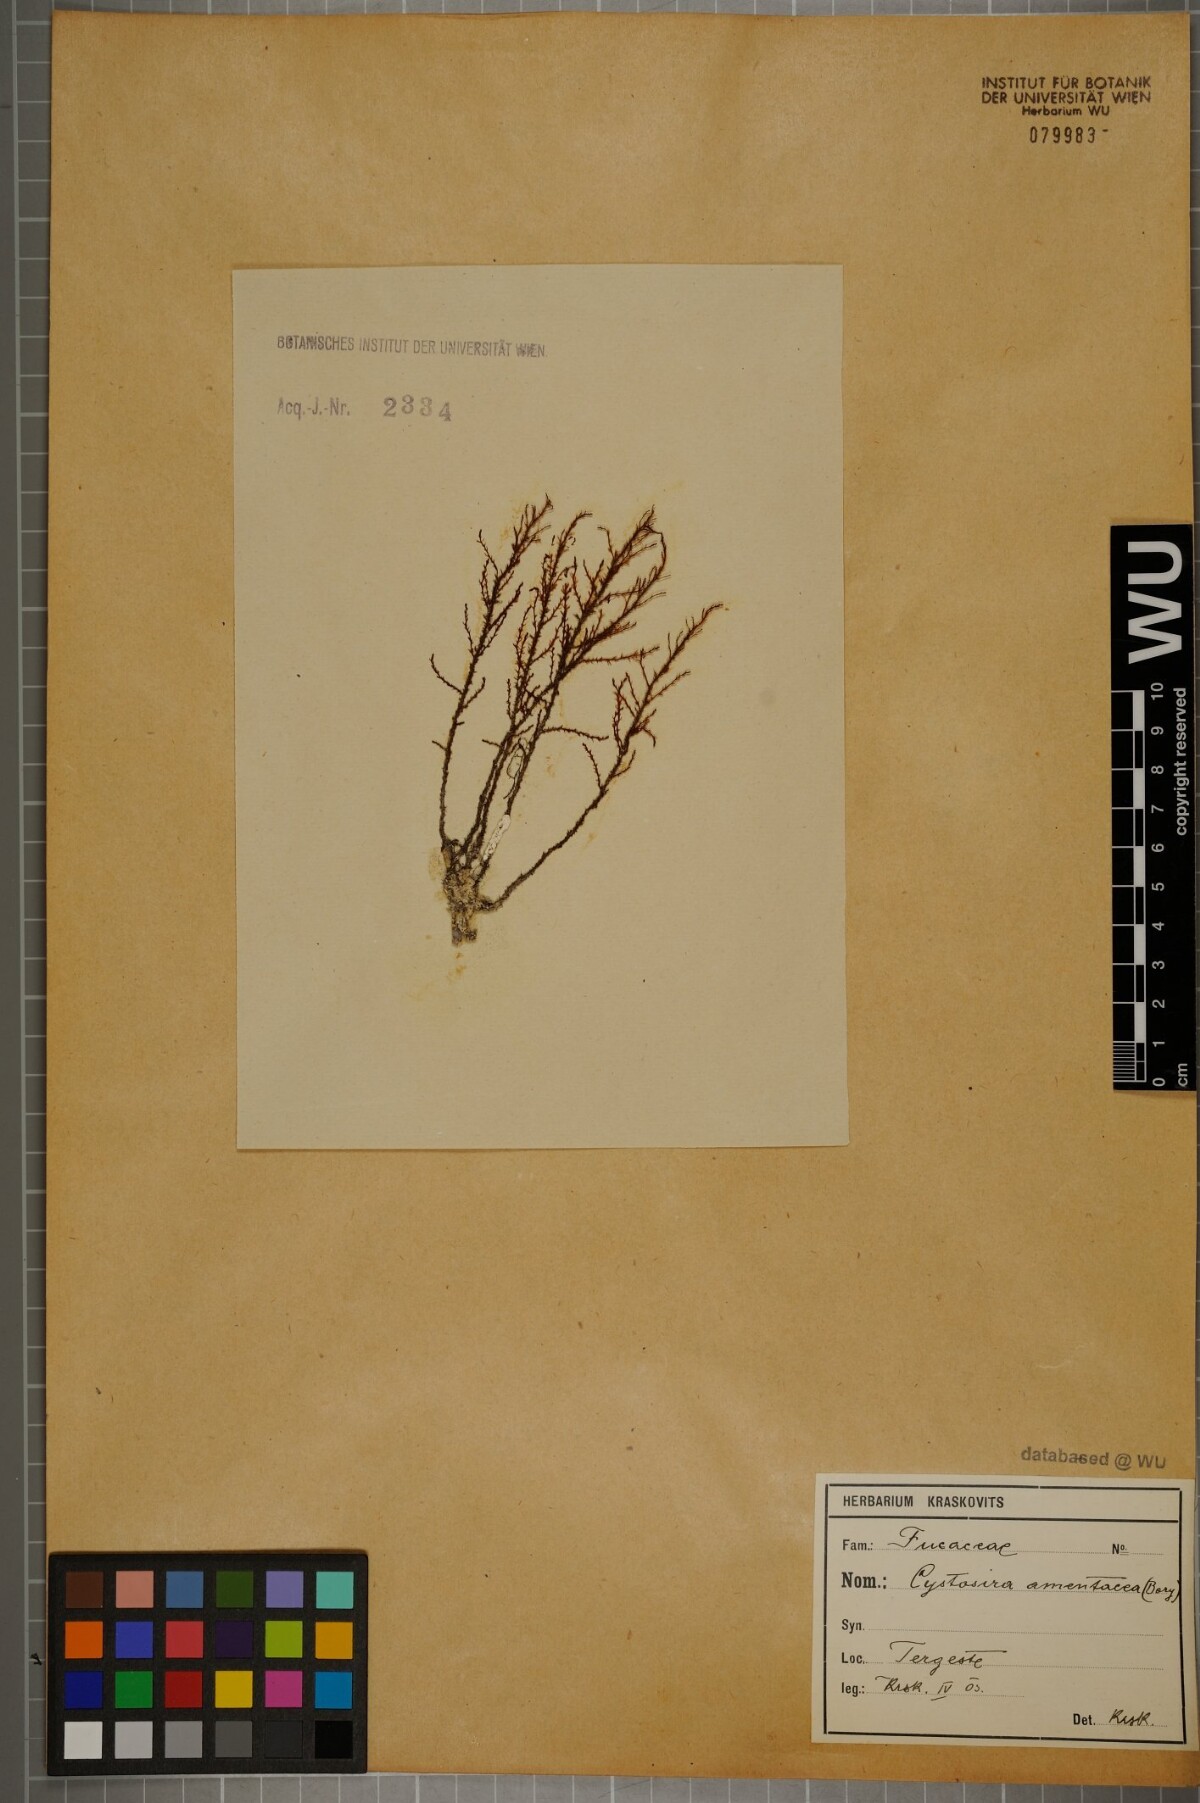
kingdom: Chromista
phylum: Ochrophyta
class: Phaeophyceae
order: Fucales
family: Sargassaceae
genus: Cystoseira
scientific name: Cystoseira Ericaria amentacea
